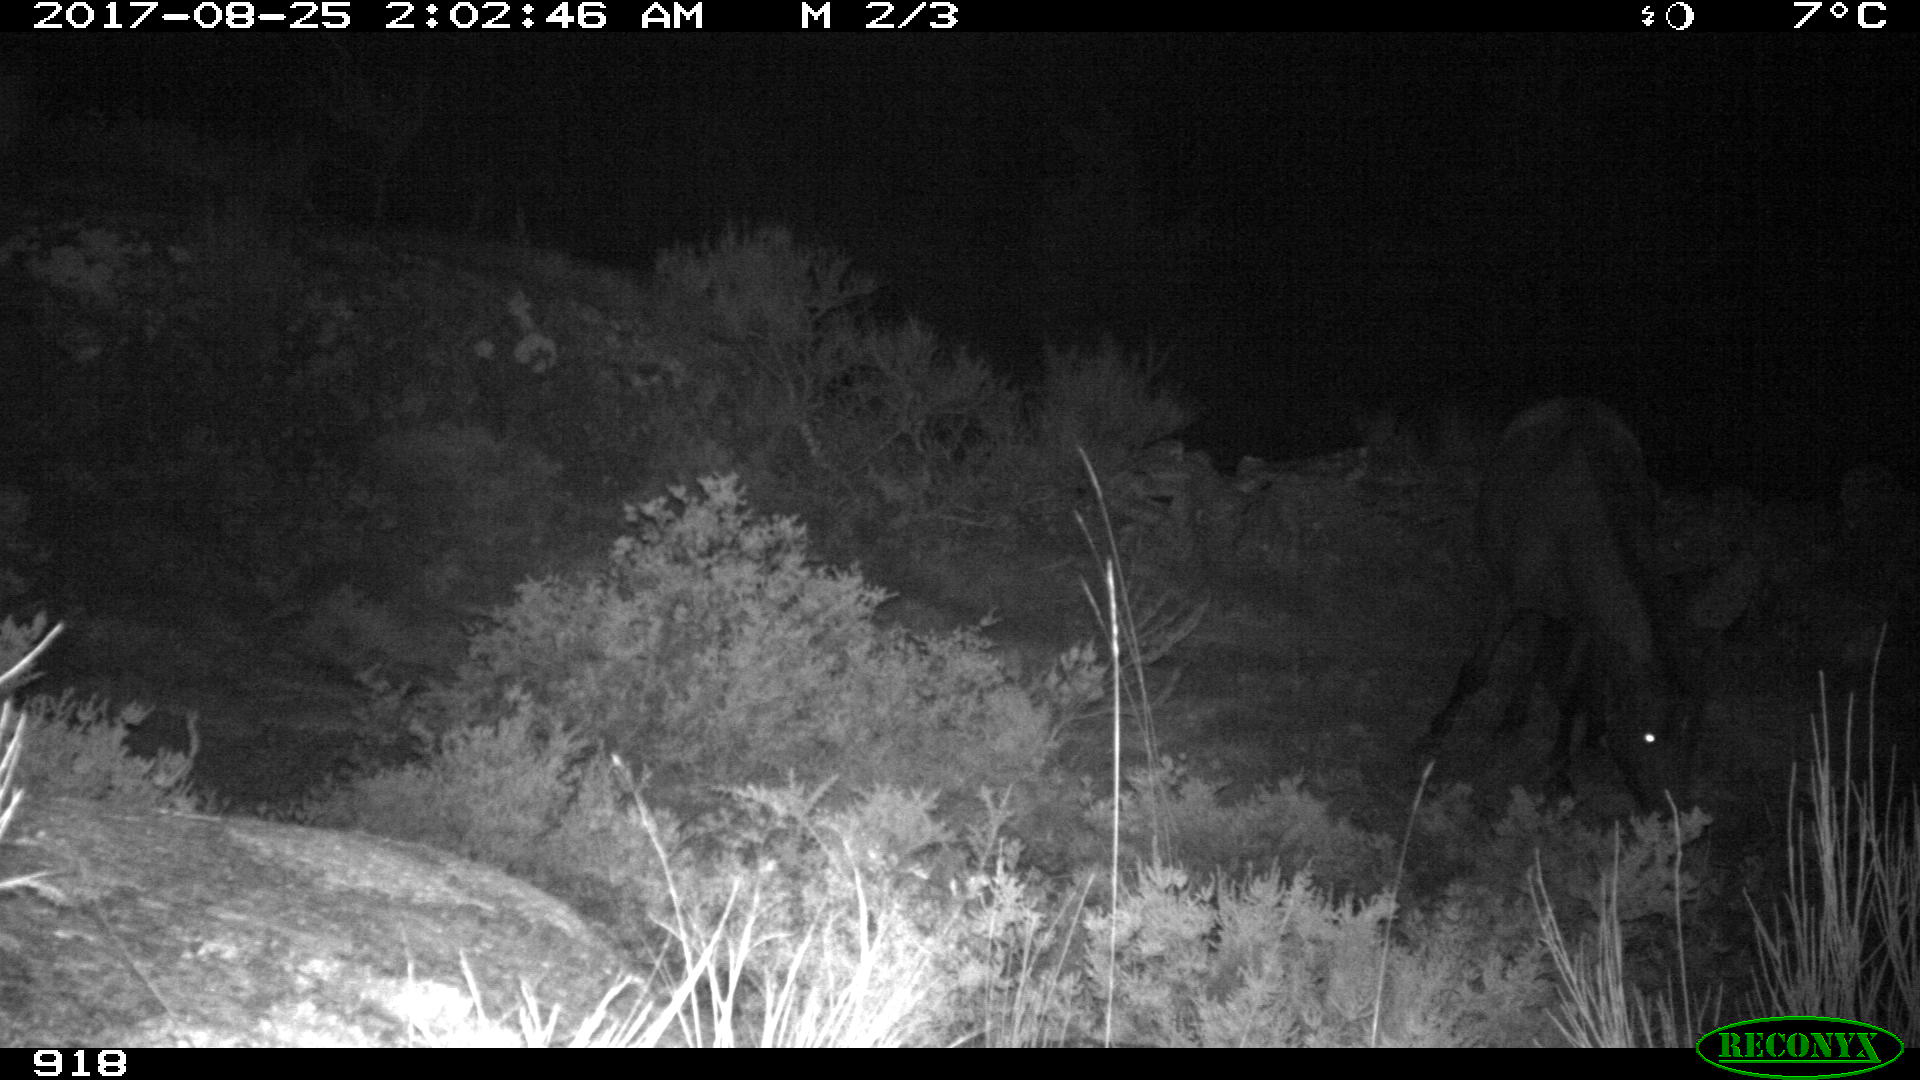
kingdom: Animalia
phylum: Chordata
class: Mammalia
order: Perissodactyla
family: Equidae
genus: Equus
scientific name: Equus caballus
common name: Horse
